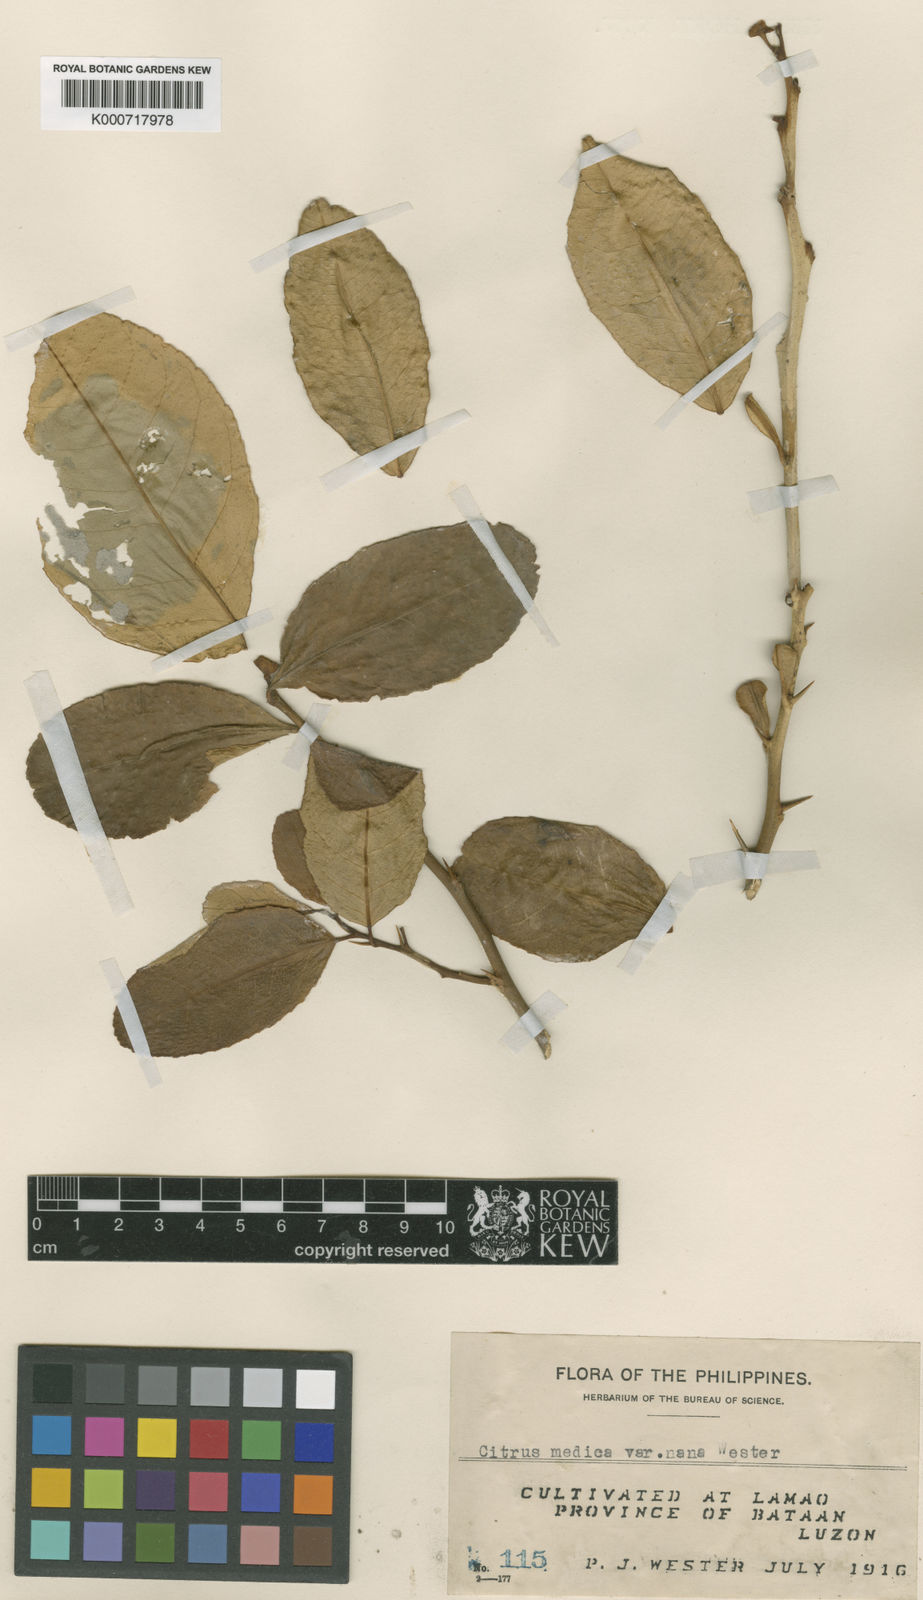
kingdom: Plantae
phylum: Tracheophyta
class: Magnoliopsida
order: Sapindales
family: Rutaceae
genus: Citrus
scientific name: Citrus medica
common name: Citron
